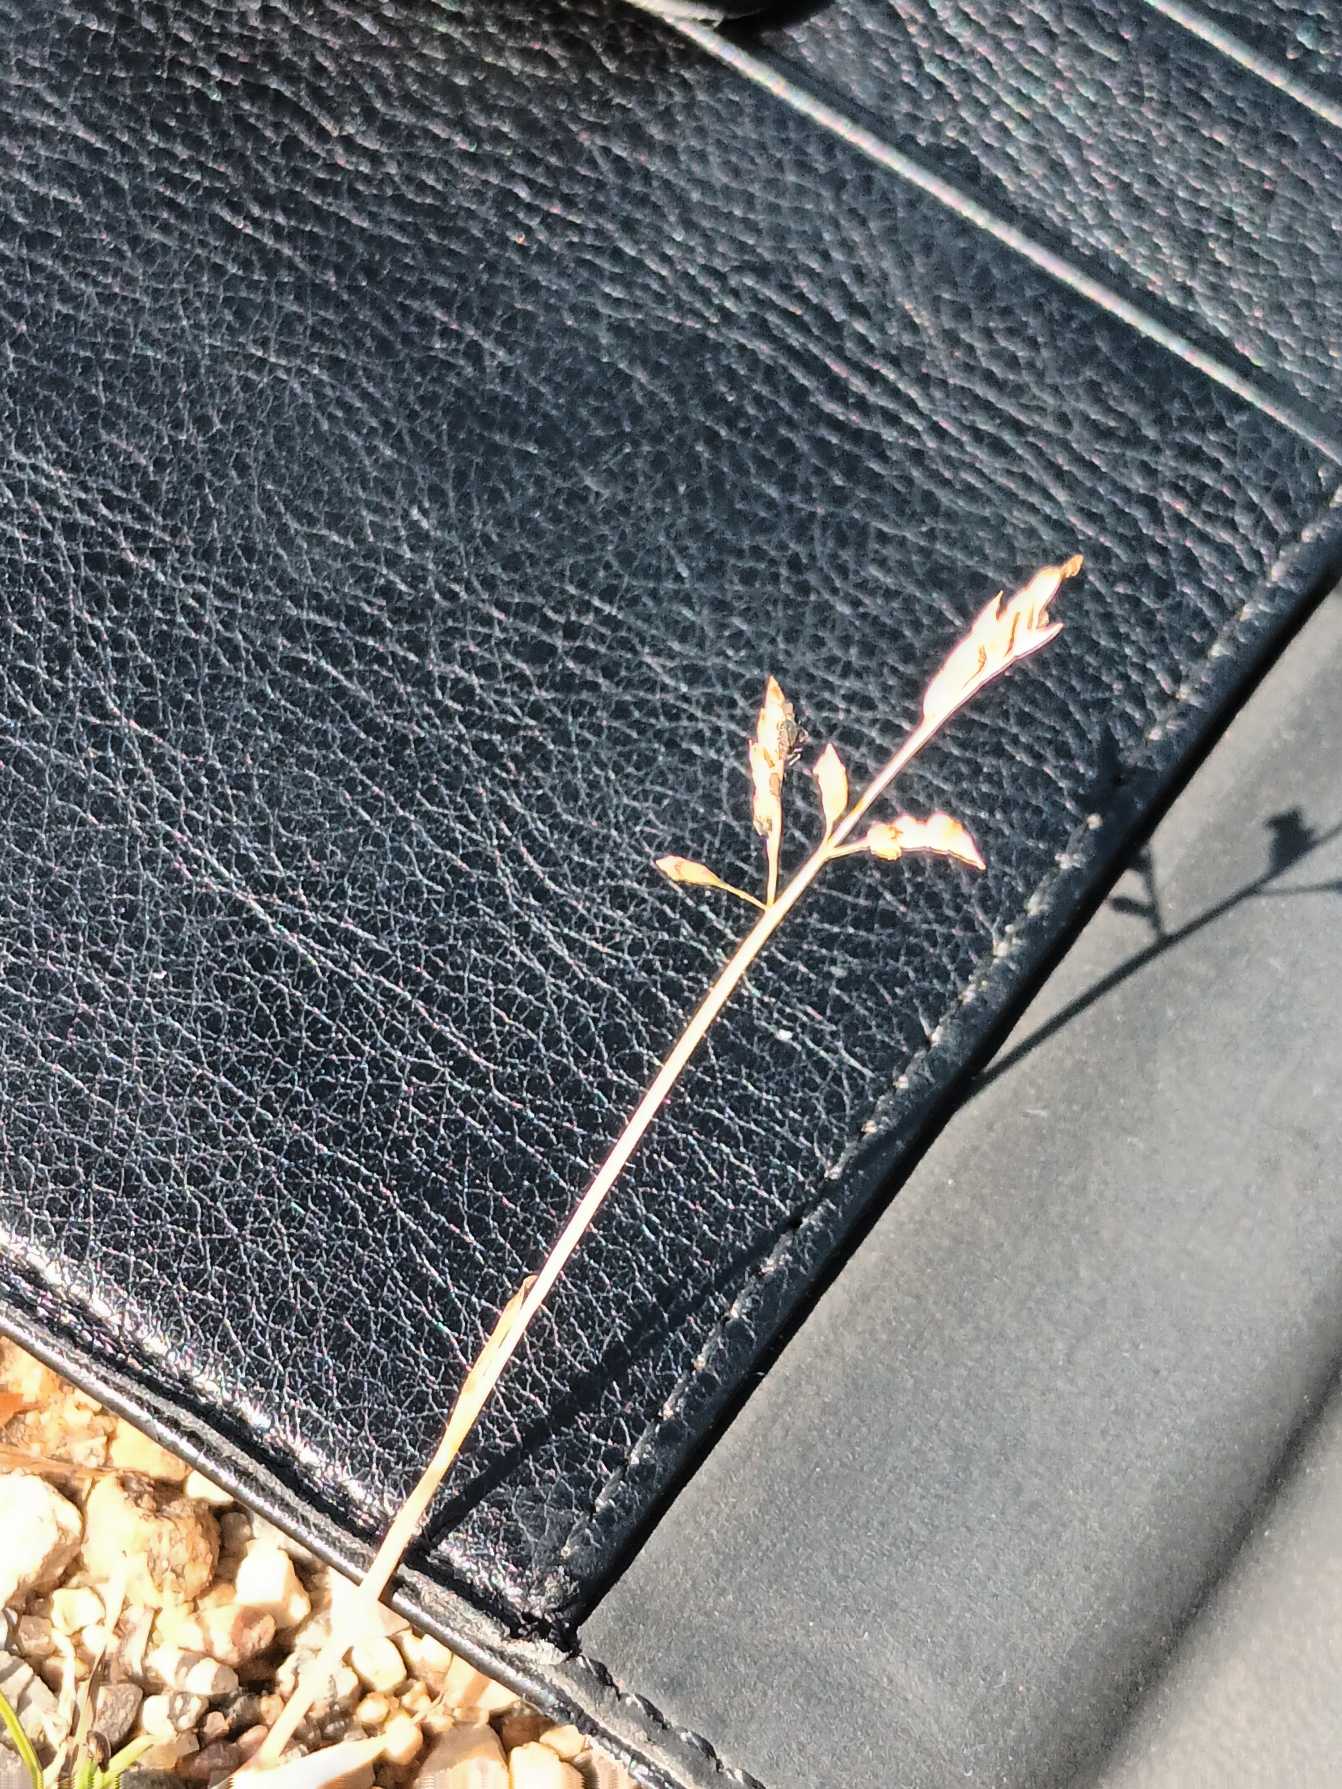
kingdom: Plantae
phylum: Tracheophyta
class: Liliopsida
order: Poales
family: Poaceae
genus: Poa
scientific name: Poa annua
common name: Enårig rapgræs
